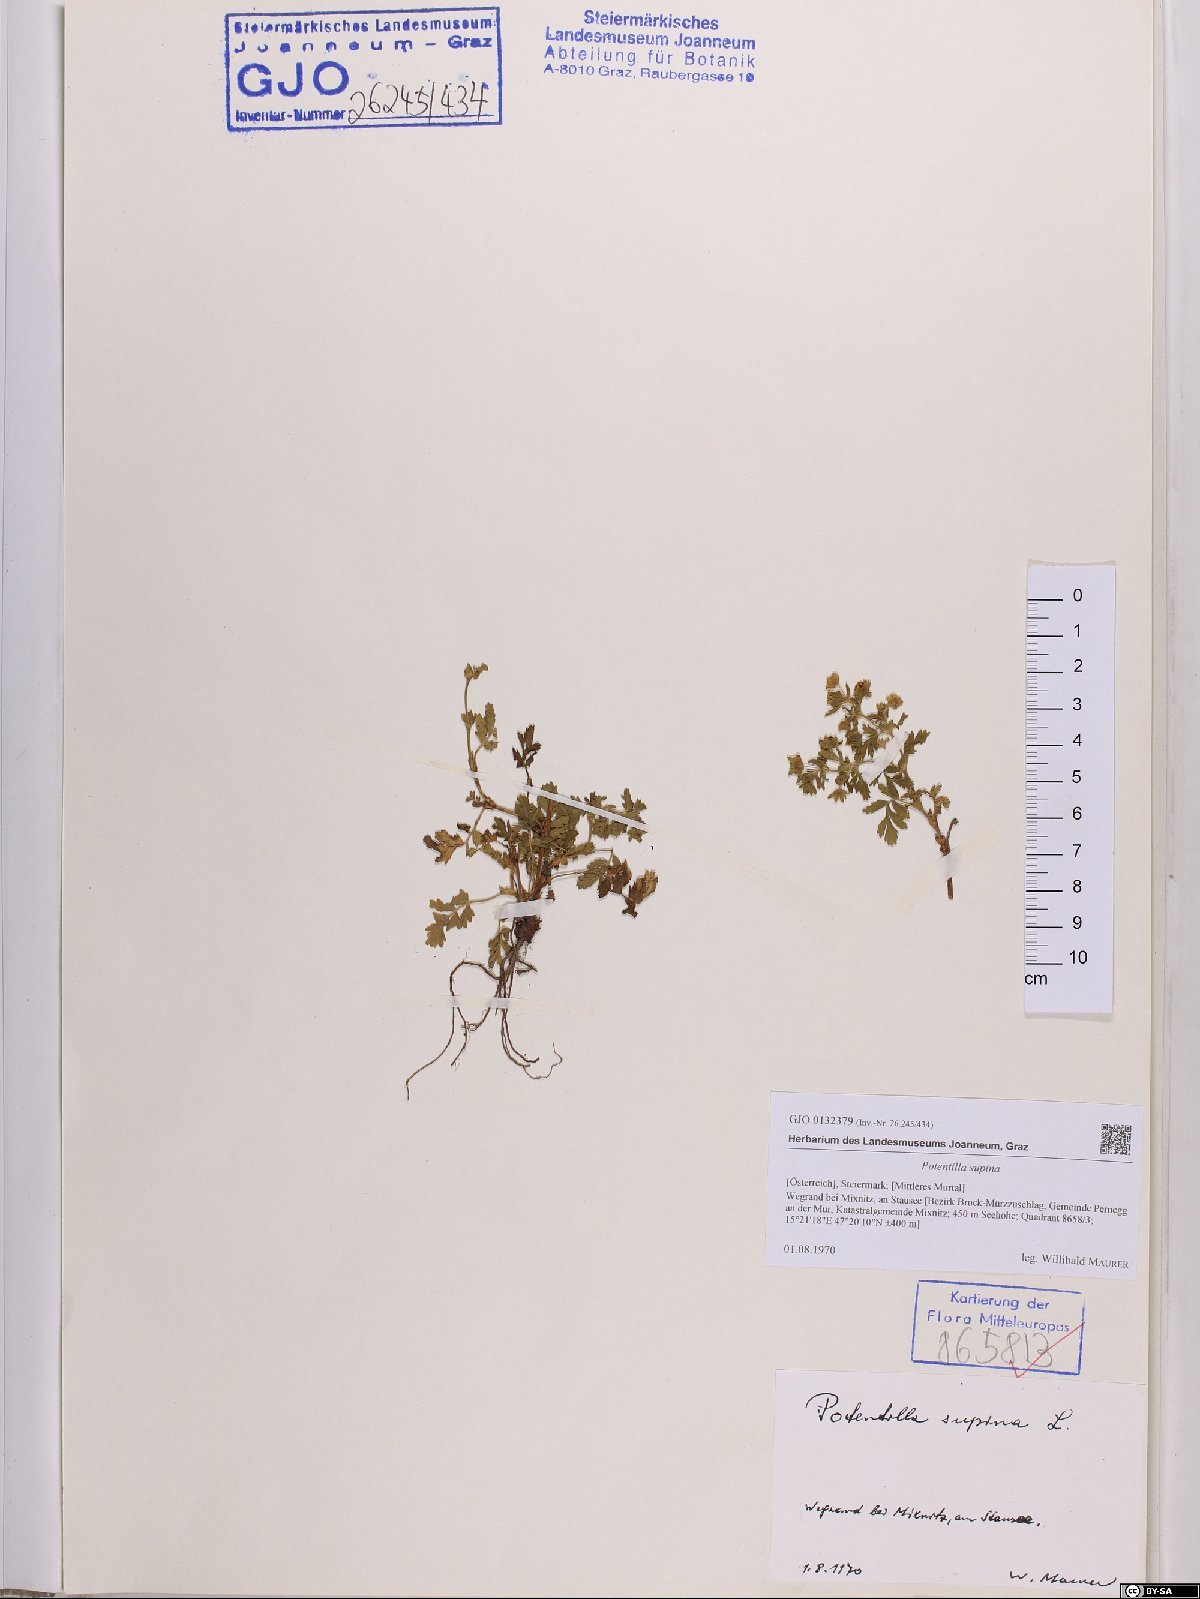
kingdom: Plantae
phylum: Tracheophyta
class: Magnoliopsida
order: Rosales
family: Rosaceae
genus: Potentilla
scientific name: Potentilla supina
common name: Prostrate cinquefoil
